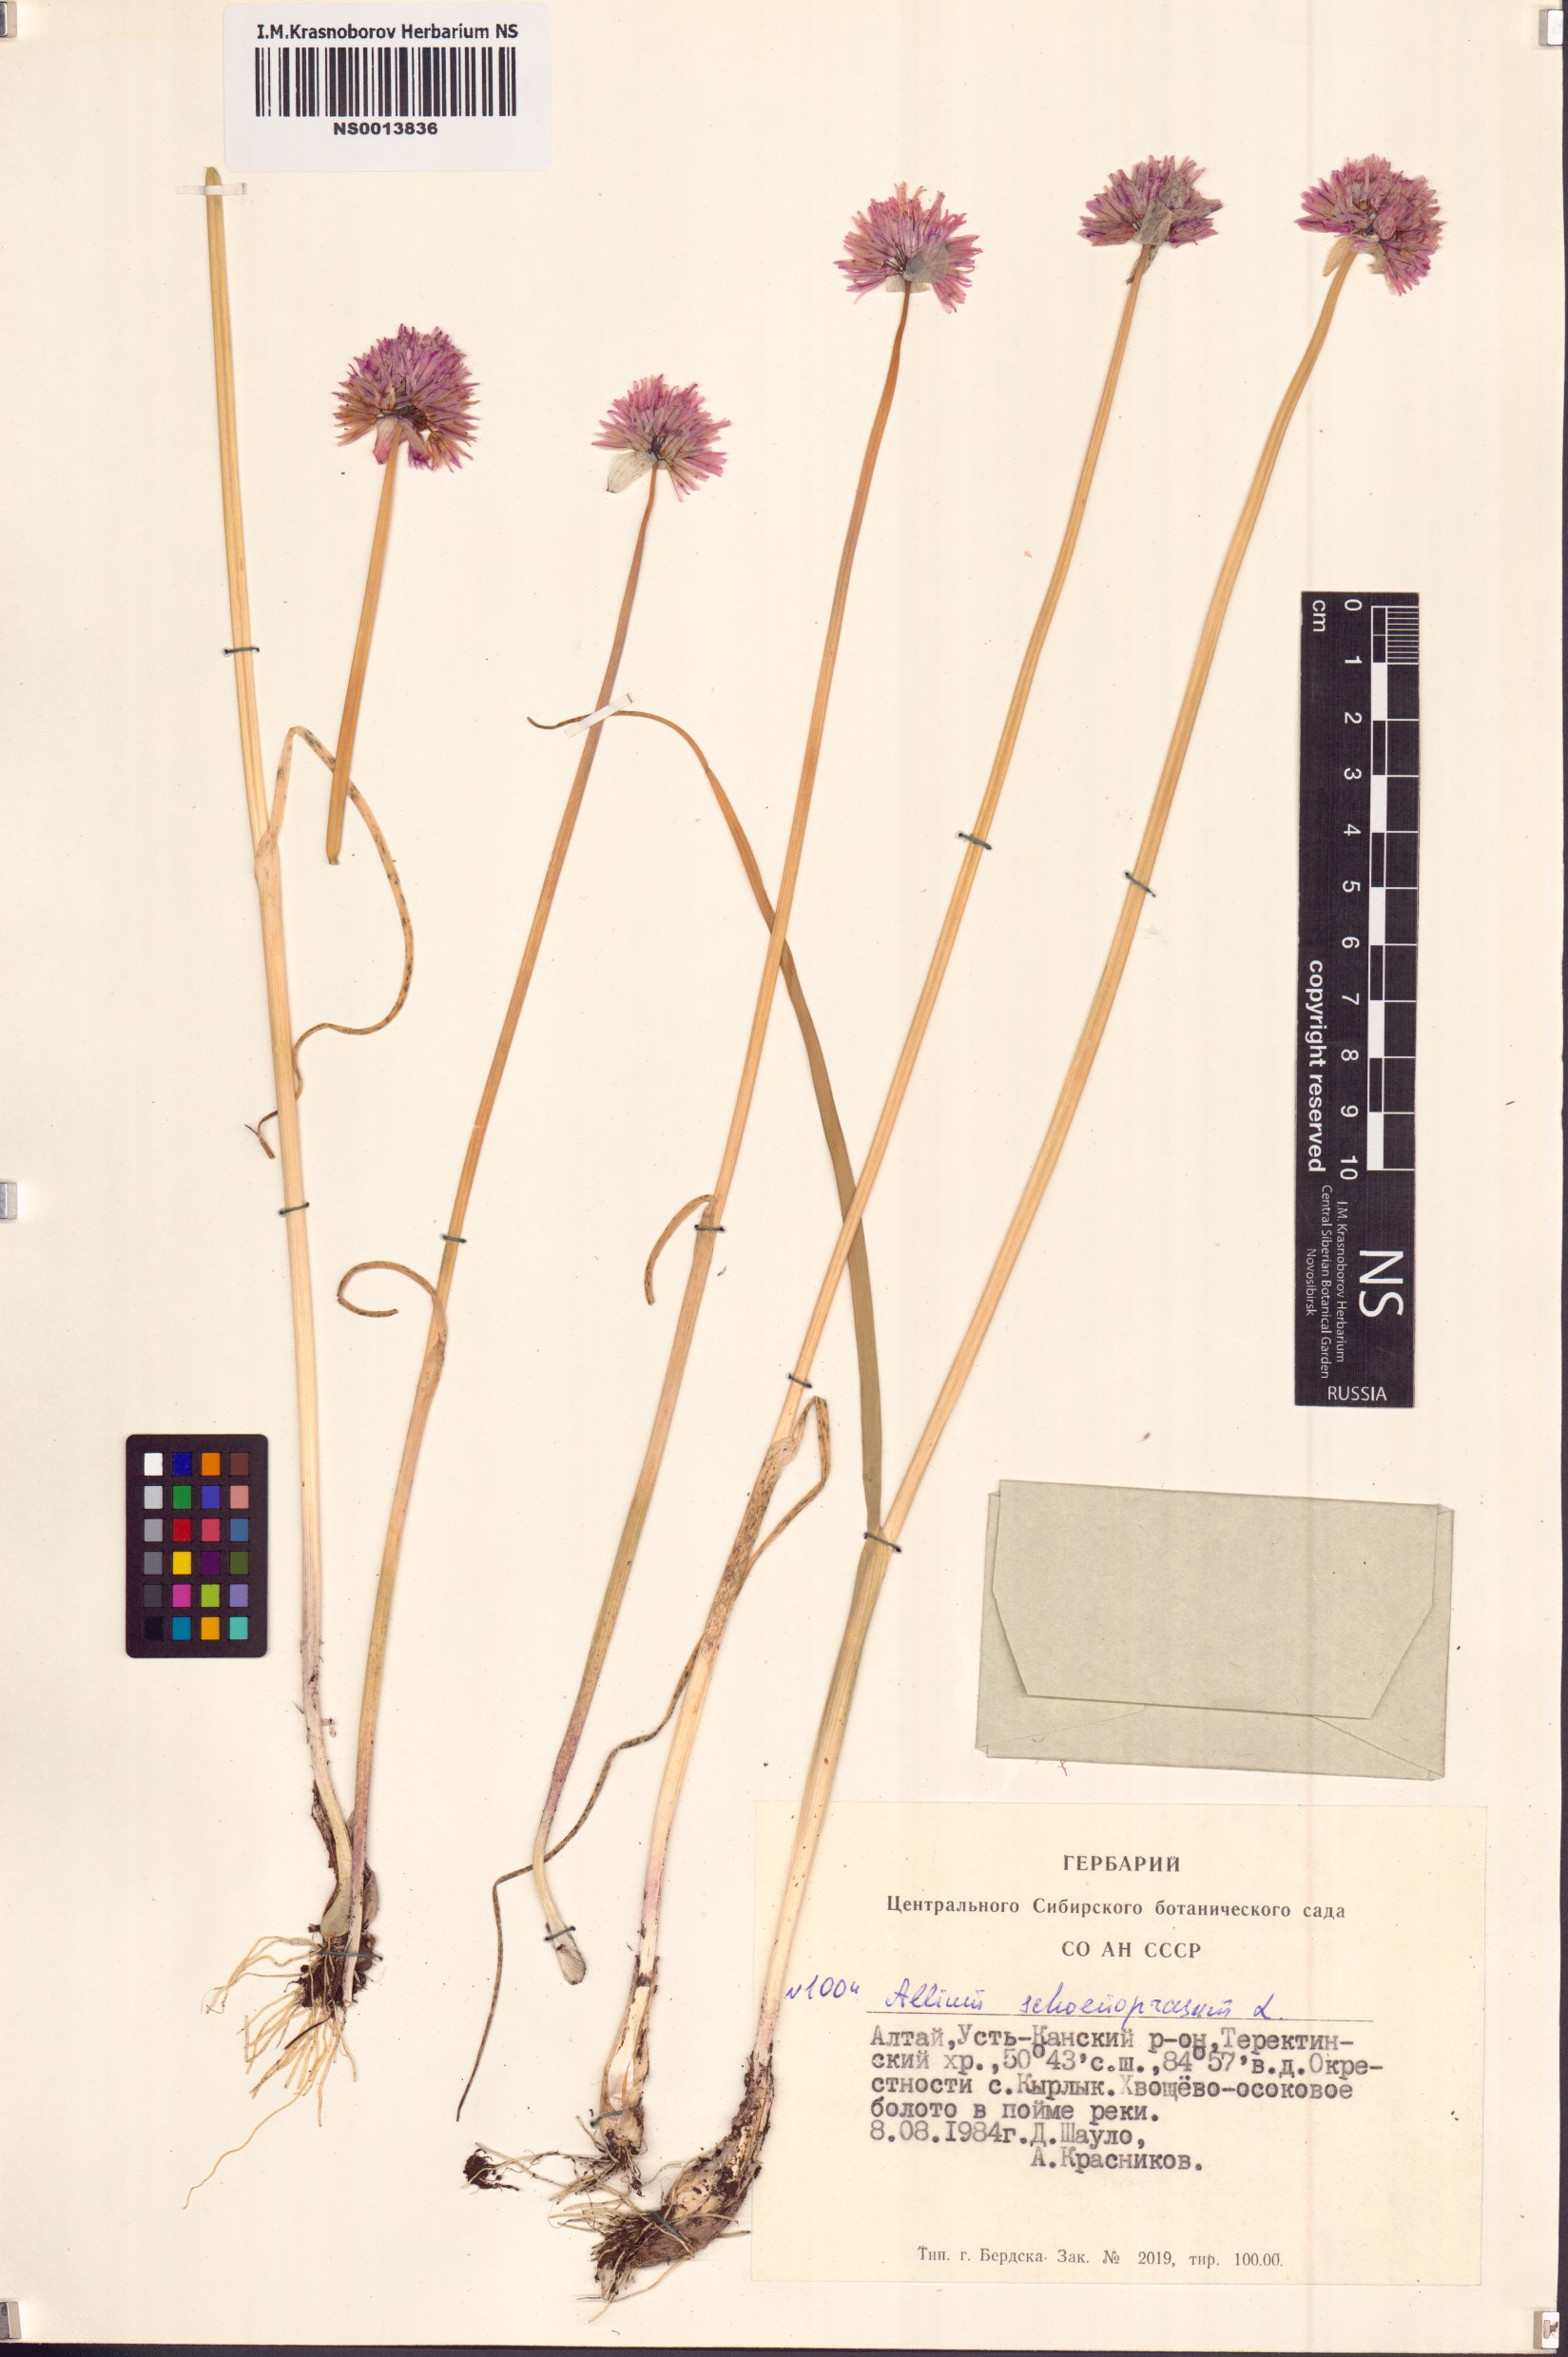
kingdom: Plantae
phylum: Tracheophyta
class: Liliopsida
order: Asparagales
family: Amaryllidaceae
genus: Allium
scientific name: Allium schoenoprasum
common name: Chives
